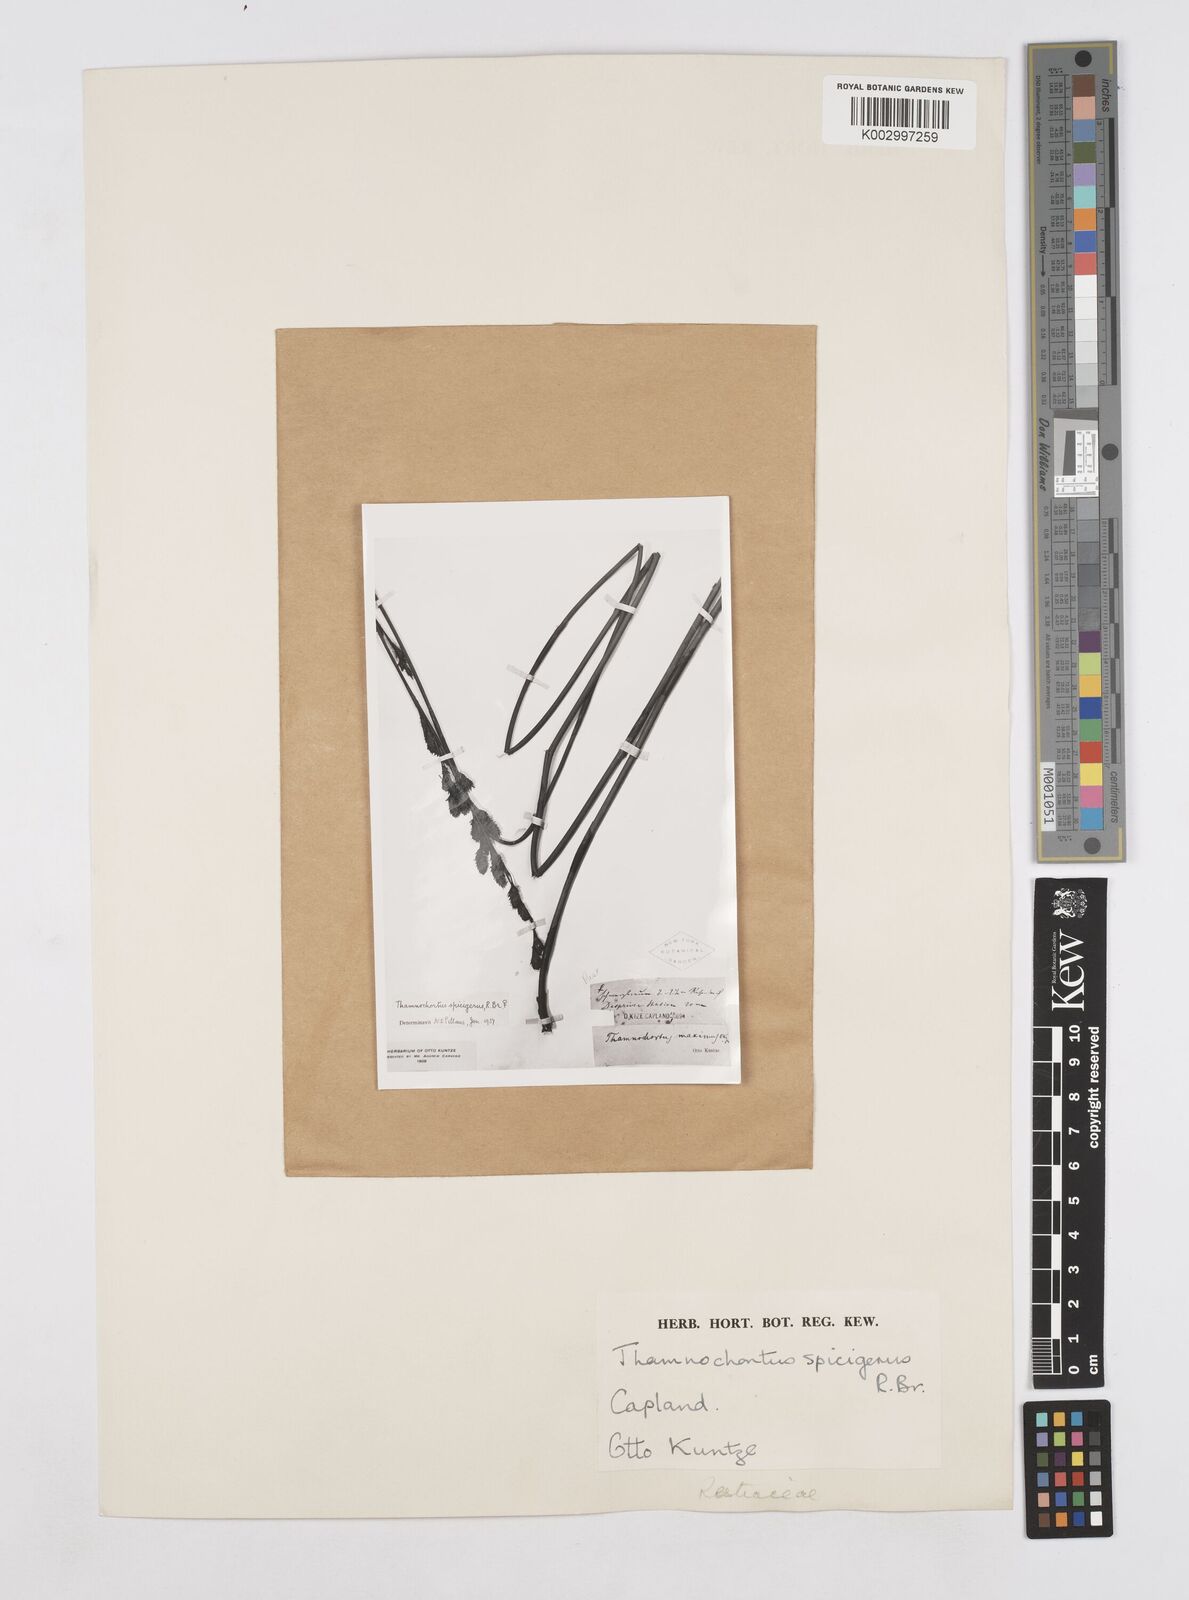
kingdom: Plantae
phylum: Tracheophyta
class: Liliopsida
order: Poales
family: Restionaceae
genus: Thamnochortus
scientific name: Thamnochortus spicigerus
